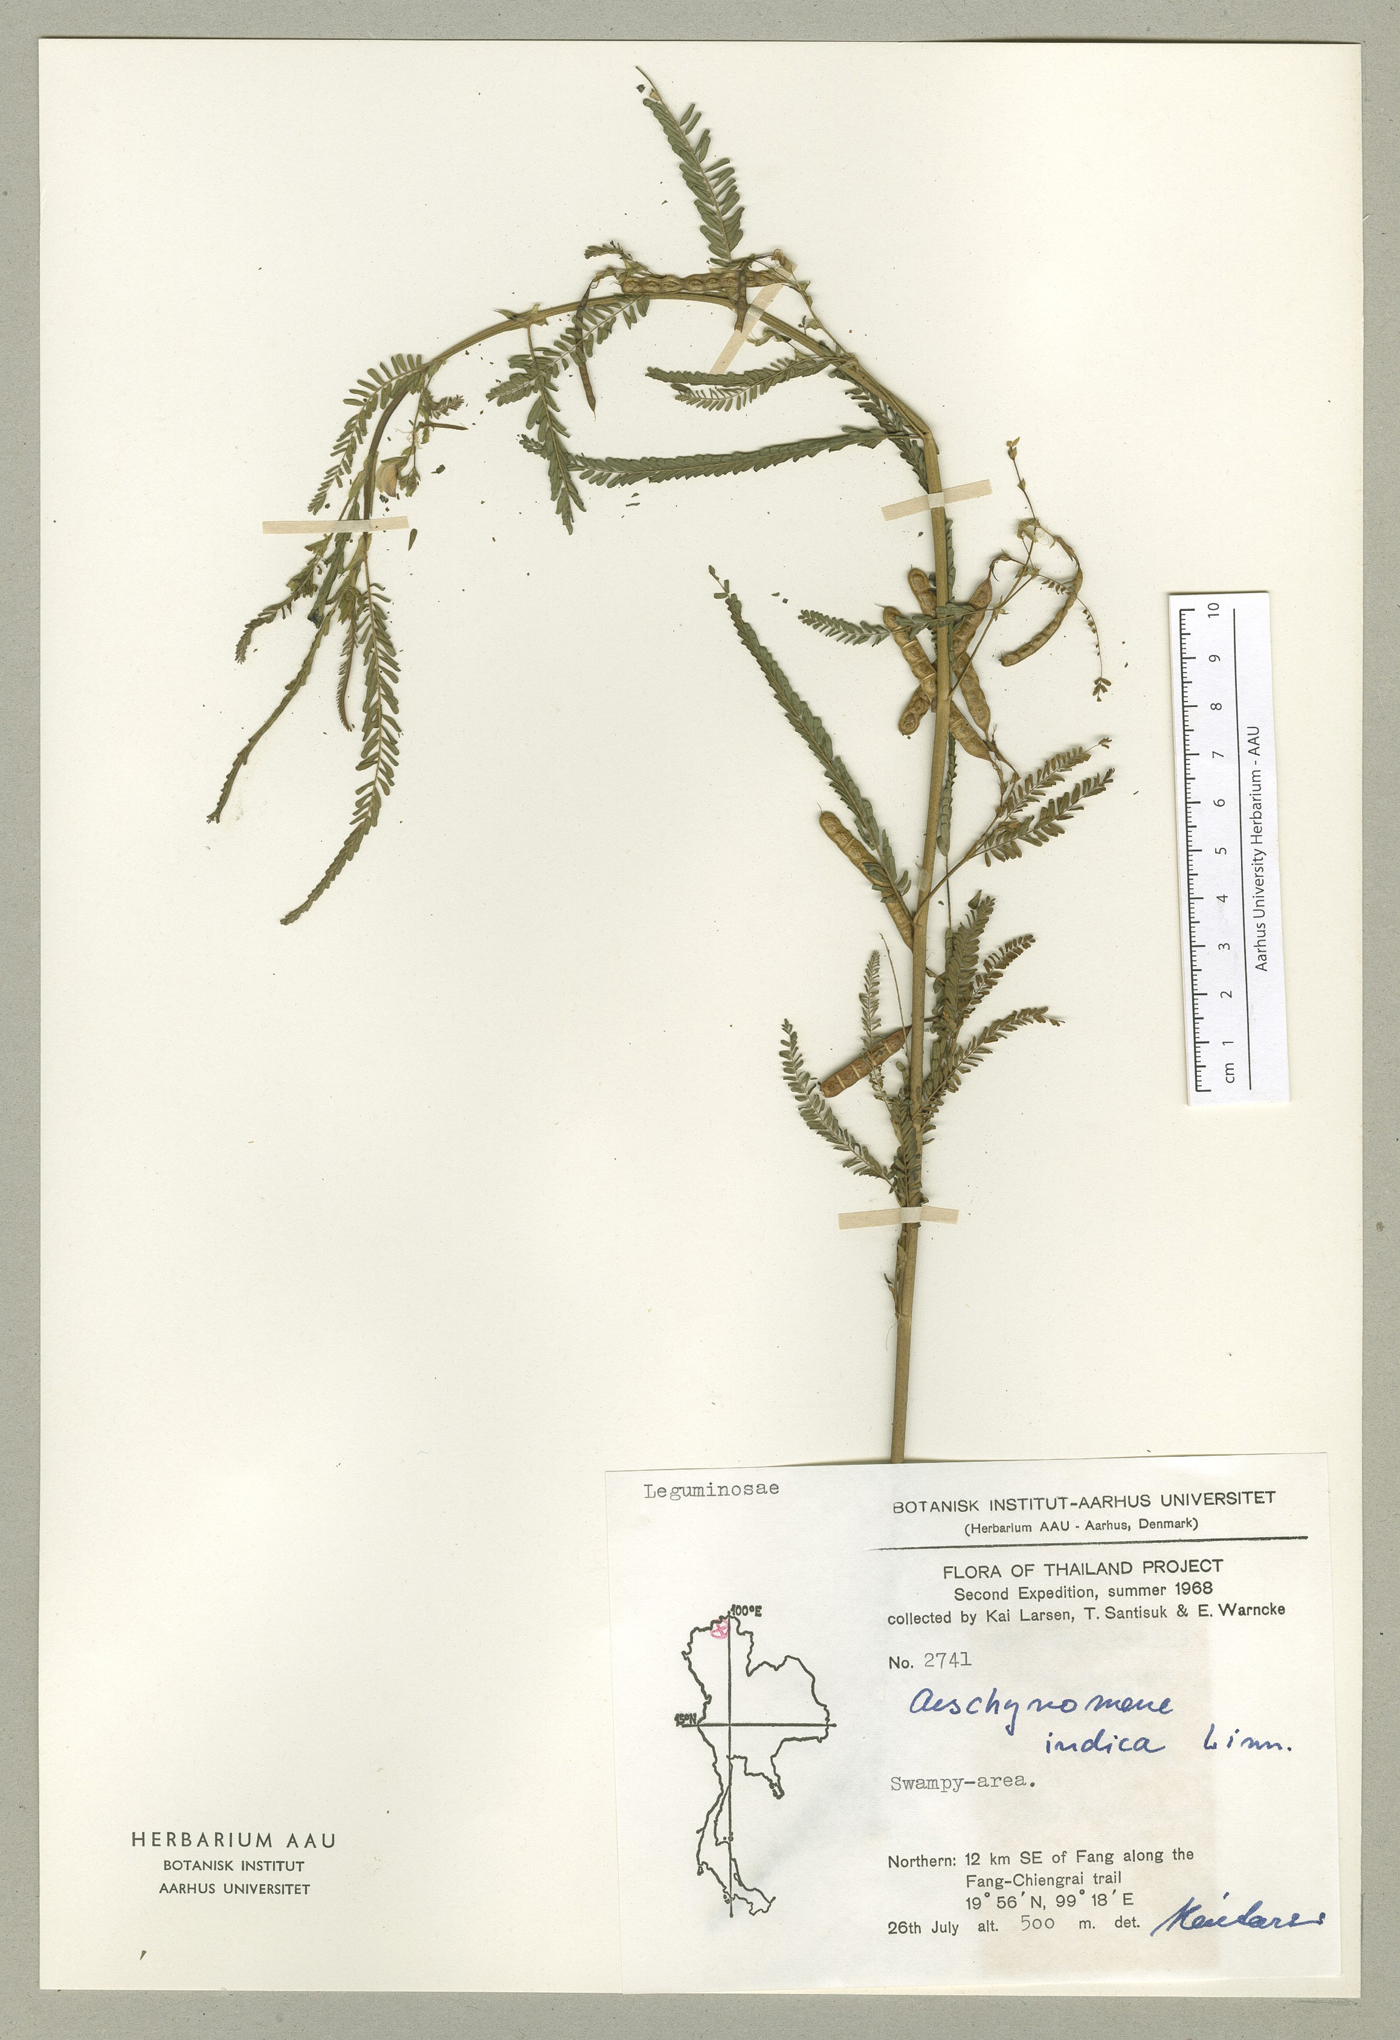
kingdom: Plantae
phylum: Tracheophyta
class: Magnoliopsida
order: Fabales
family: Fabaceae
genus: Aeschynomene
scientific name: Aeschynomene indica
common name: Indian jointvetch
